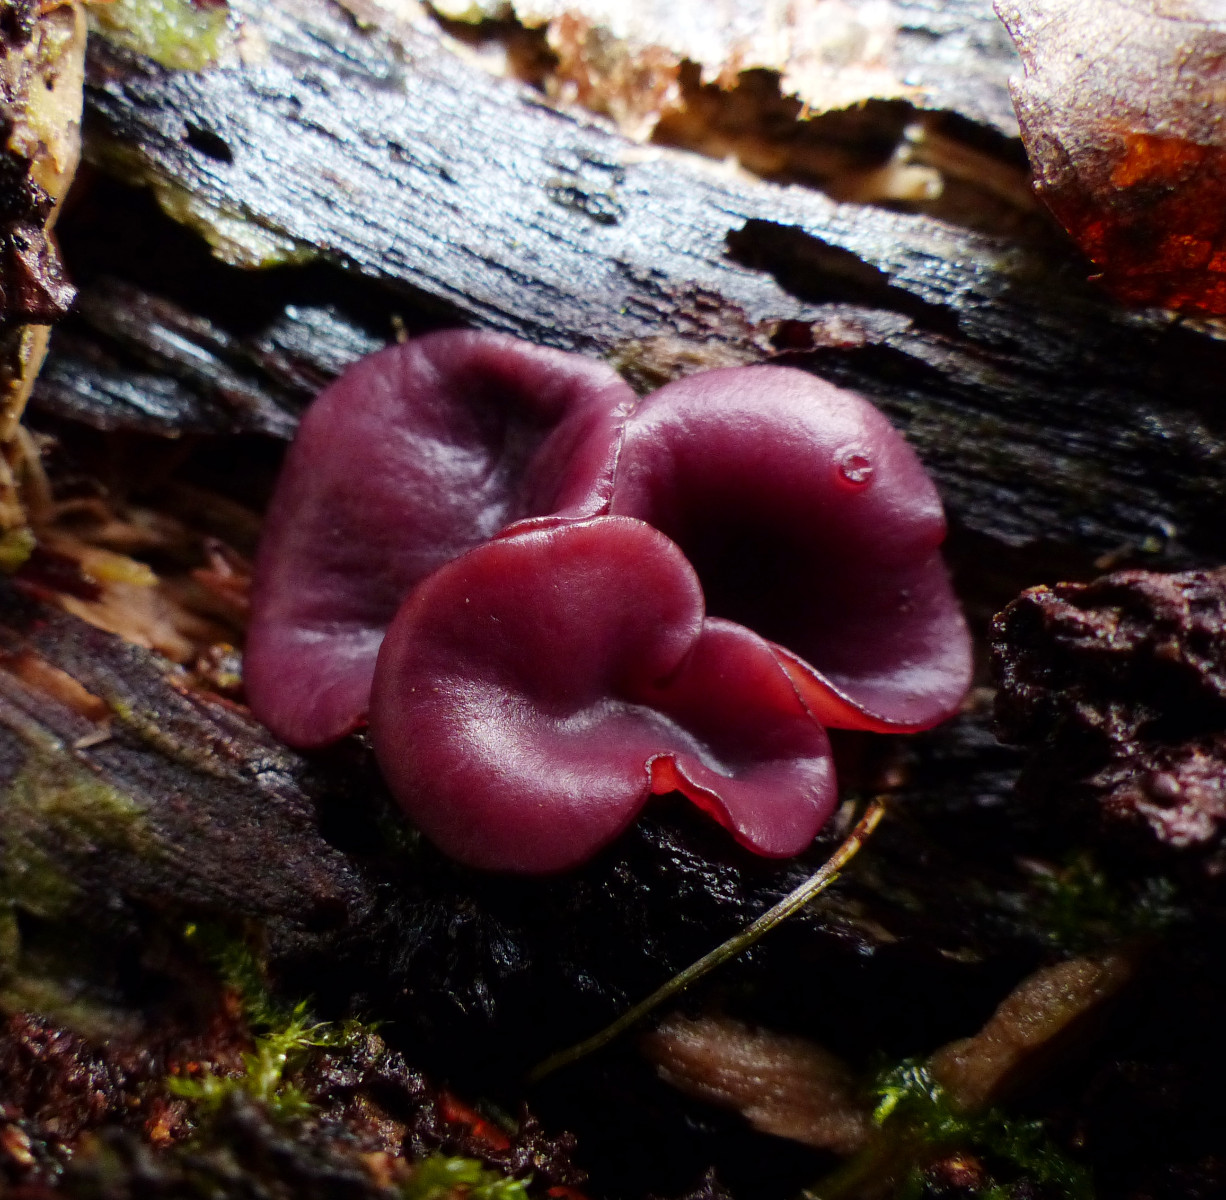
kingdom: Fungi
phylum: Ascomycota
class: Leotiomycetes
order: Helotiales
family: Gelatinodiscaceae
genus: Ascocoryne
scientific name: Ascocoryne cylichnium
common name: stor sejskive
